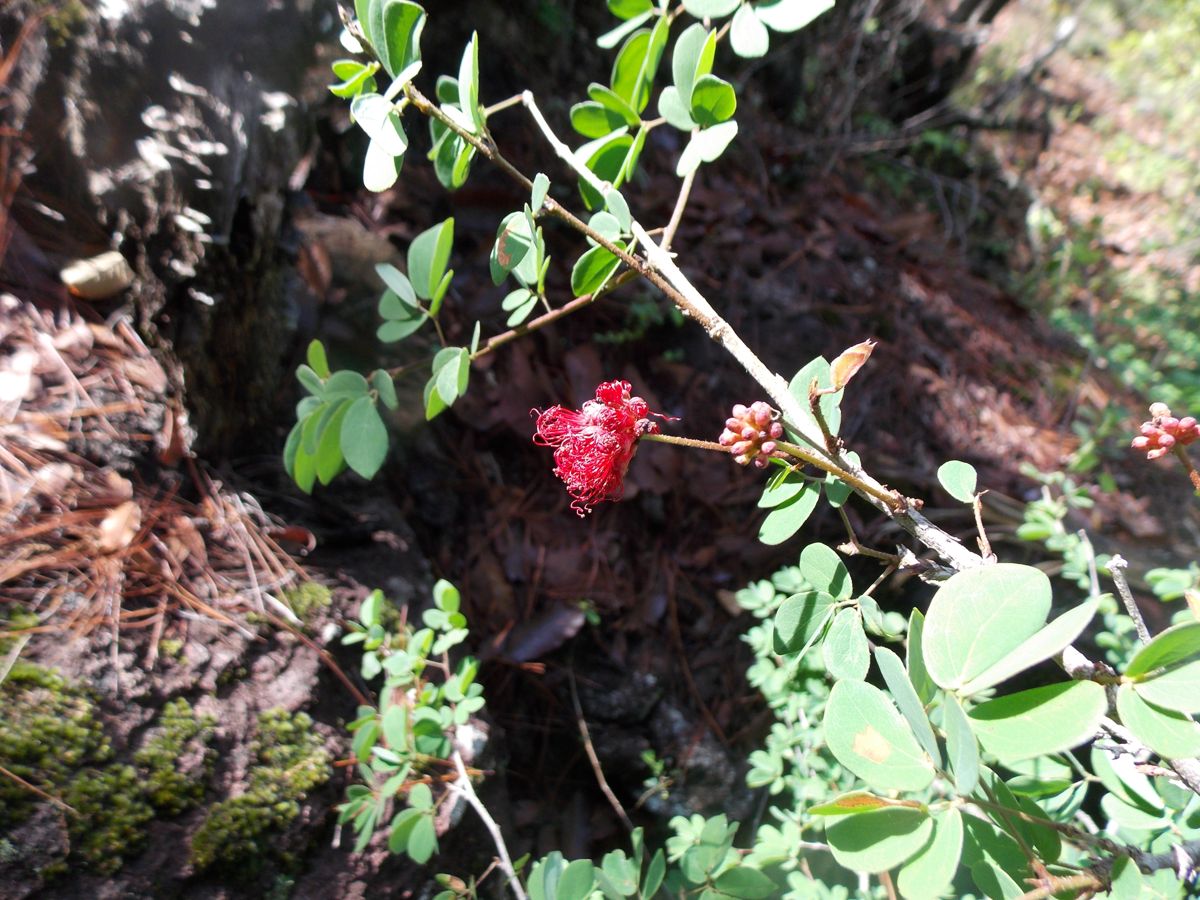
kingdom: Plantae
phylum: Tracheophyta
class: Magnoliopsida
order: Fabales
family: Fabaceae
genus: Calliandra
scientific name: Calliandra tergemina
